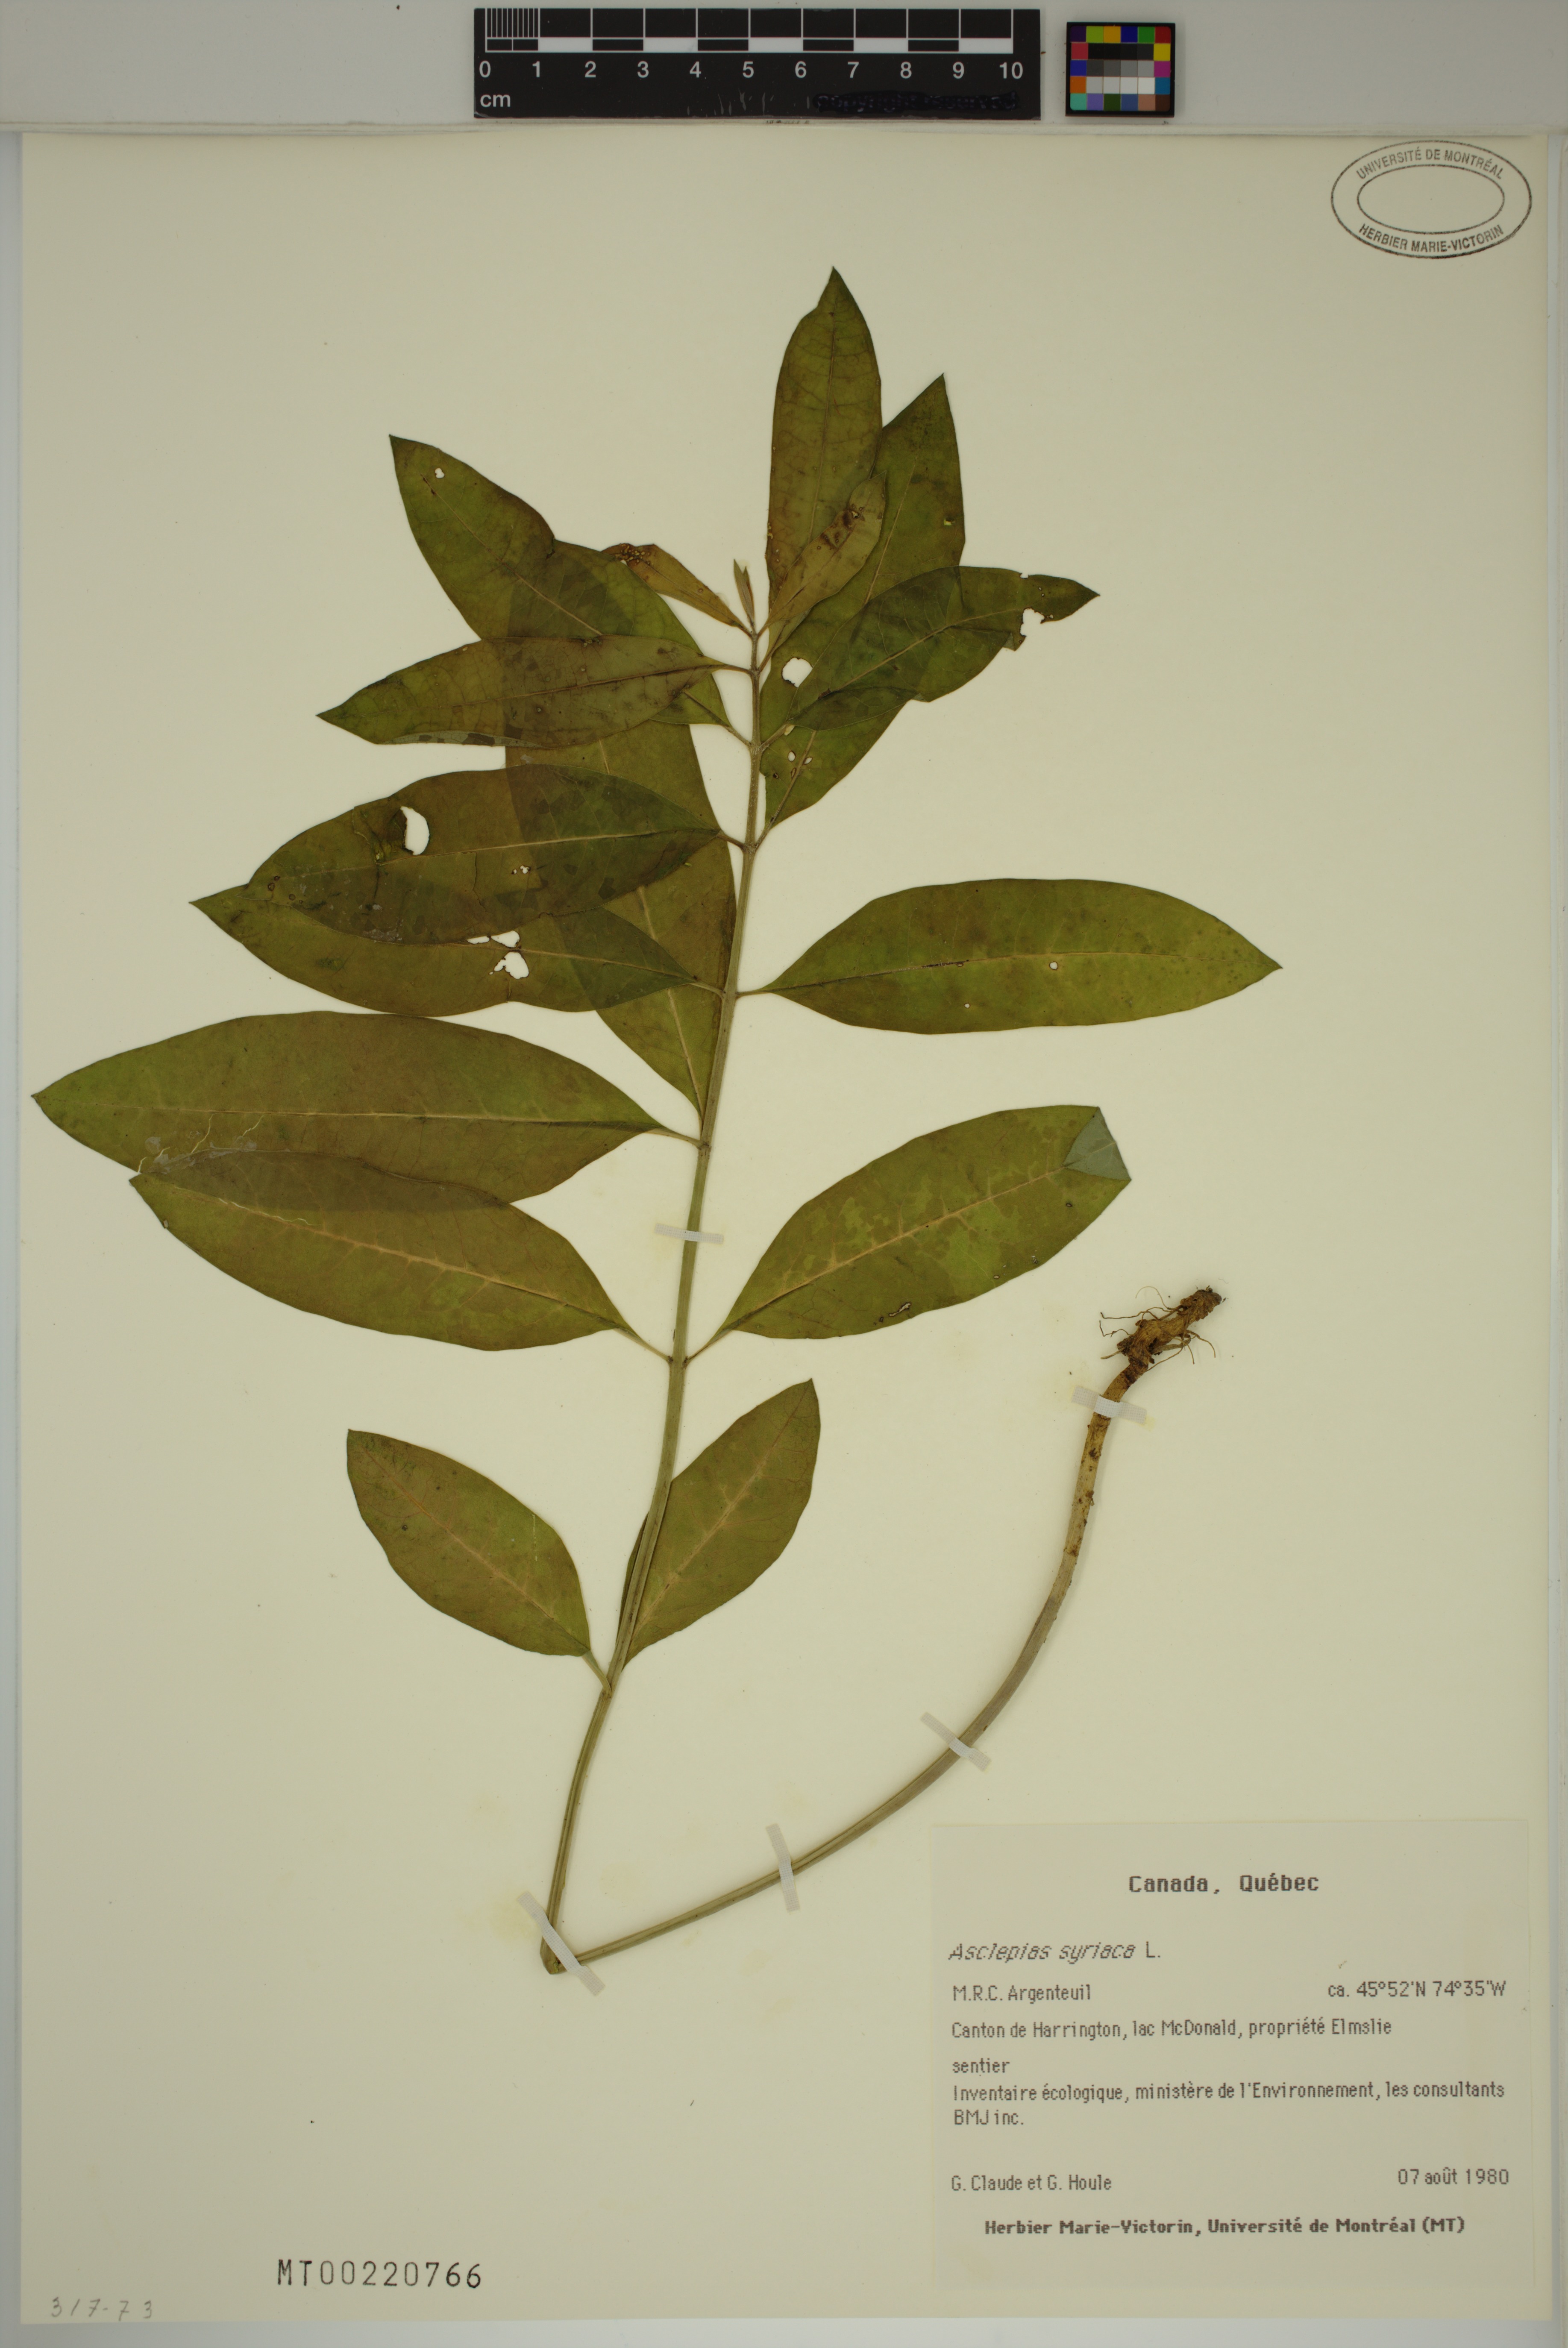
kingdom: Plantae
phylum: Tracheophyta
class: Magnoliopsida
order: Gentianales
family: Apocynaceae
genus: Asclepias
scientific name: Asclepias syriaca
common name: Common milkweed
